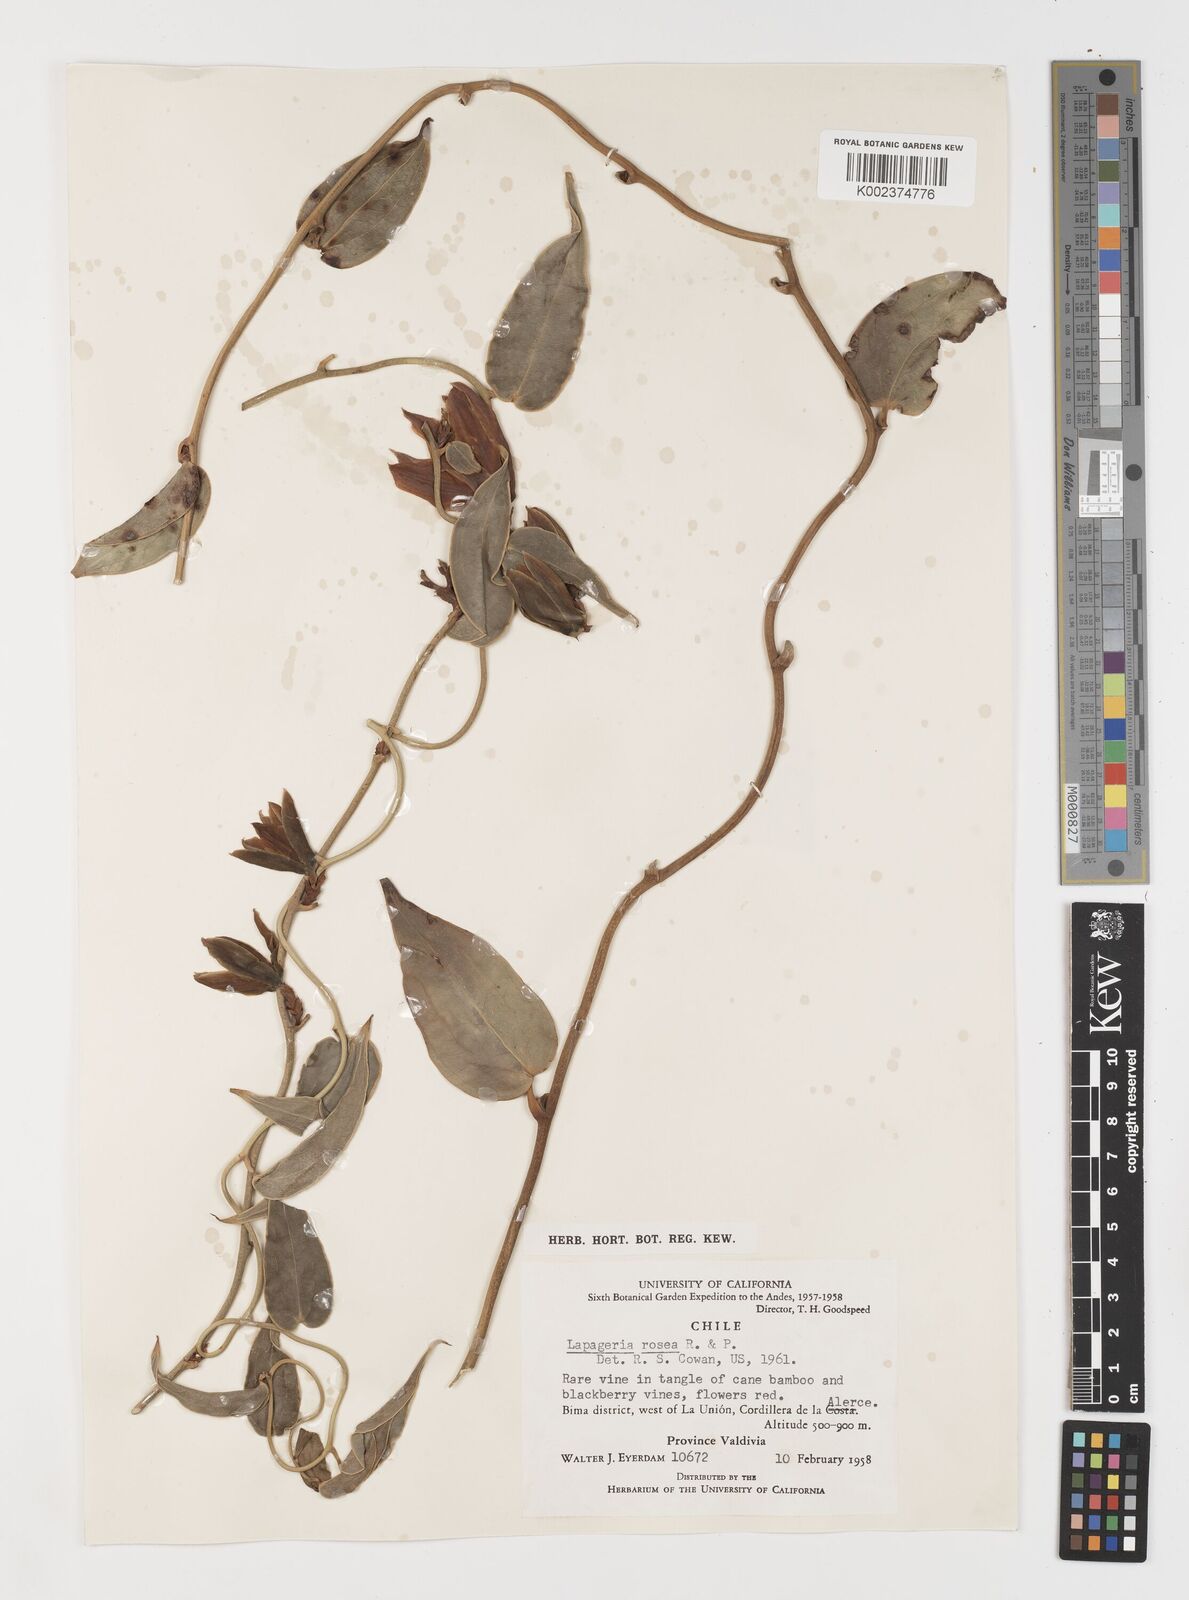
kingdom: Plantae
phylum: Tracheophyta
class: Liliopsida
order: Liliales
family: Philesiaceae
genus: Lapageria
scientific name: Lapageria rosea
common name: Chilean-bellflower
